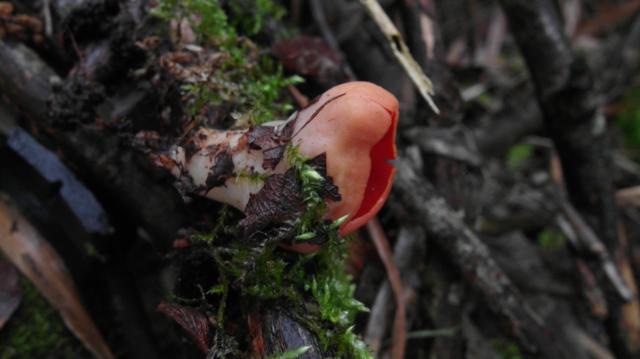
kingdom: Fungi
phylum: Ascomycota
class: Pezizomycetes
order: Pezizales
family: Sarcoscyphaceae
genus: Sarcoscypha
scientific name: Sarcoscypha austriaca
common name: krølhåret pragtbæger
